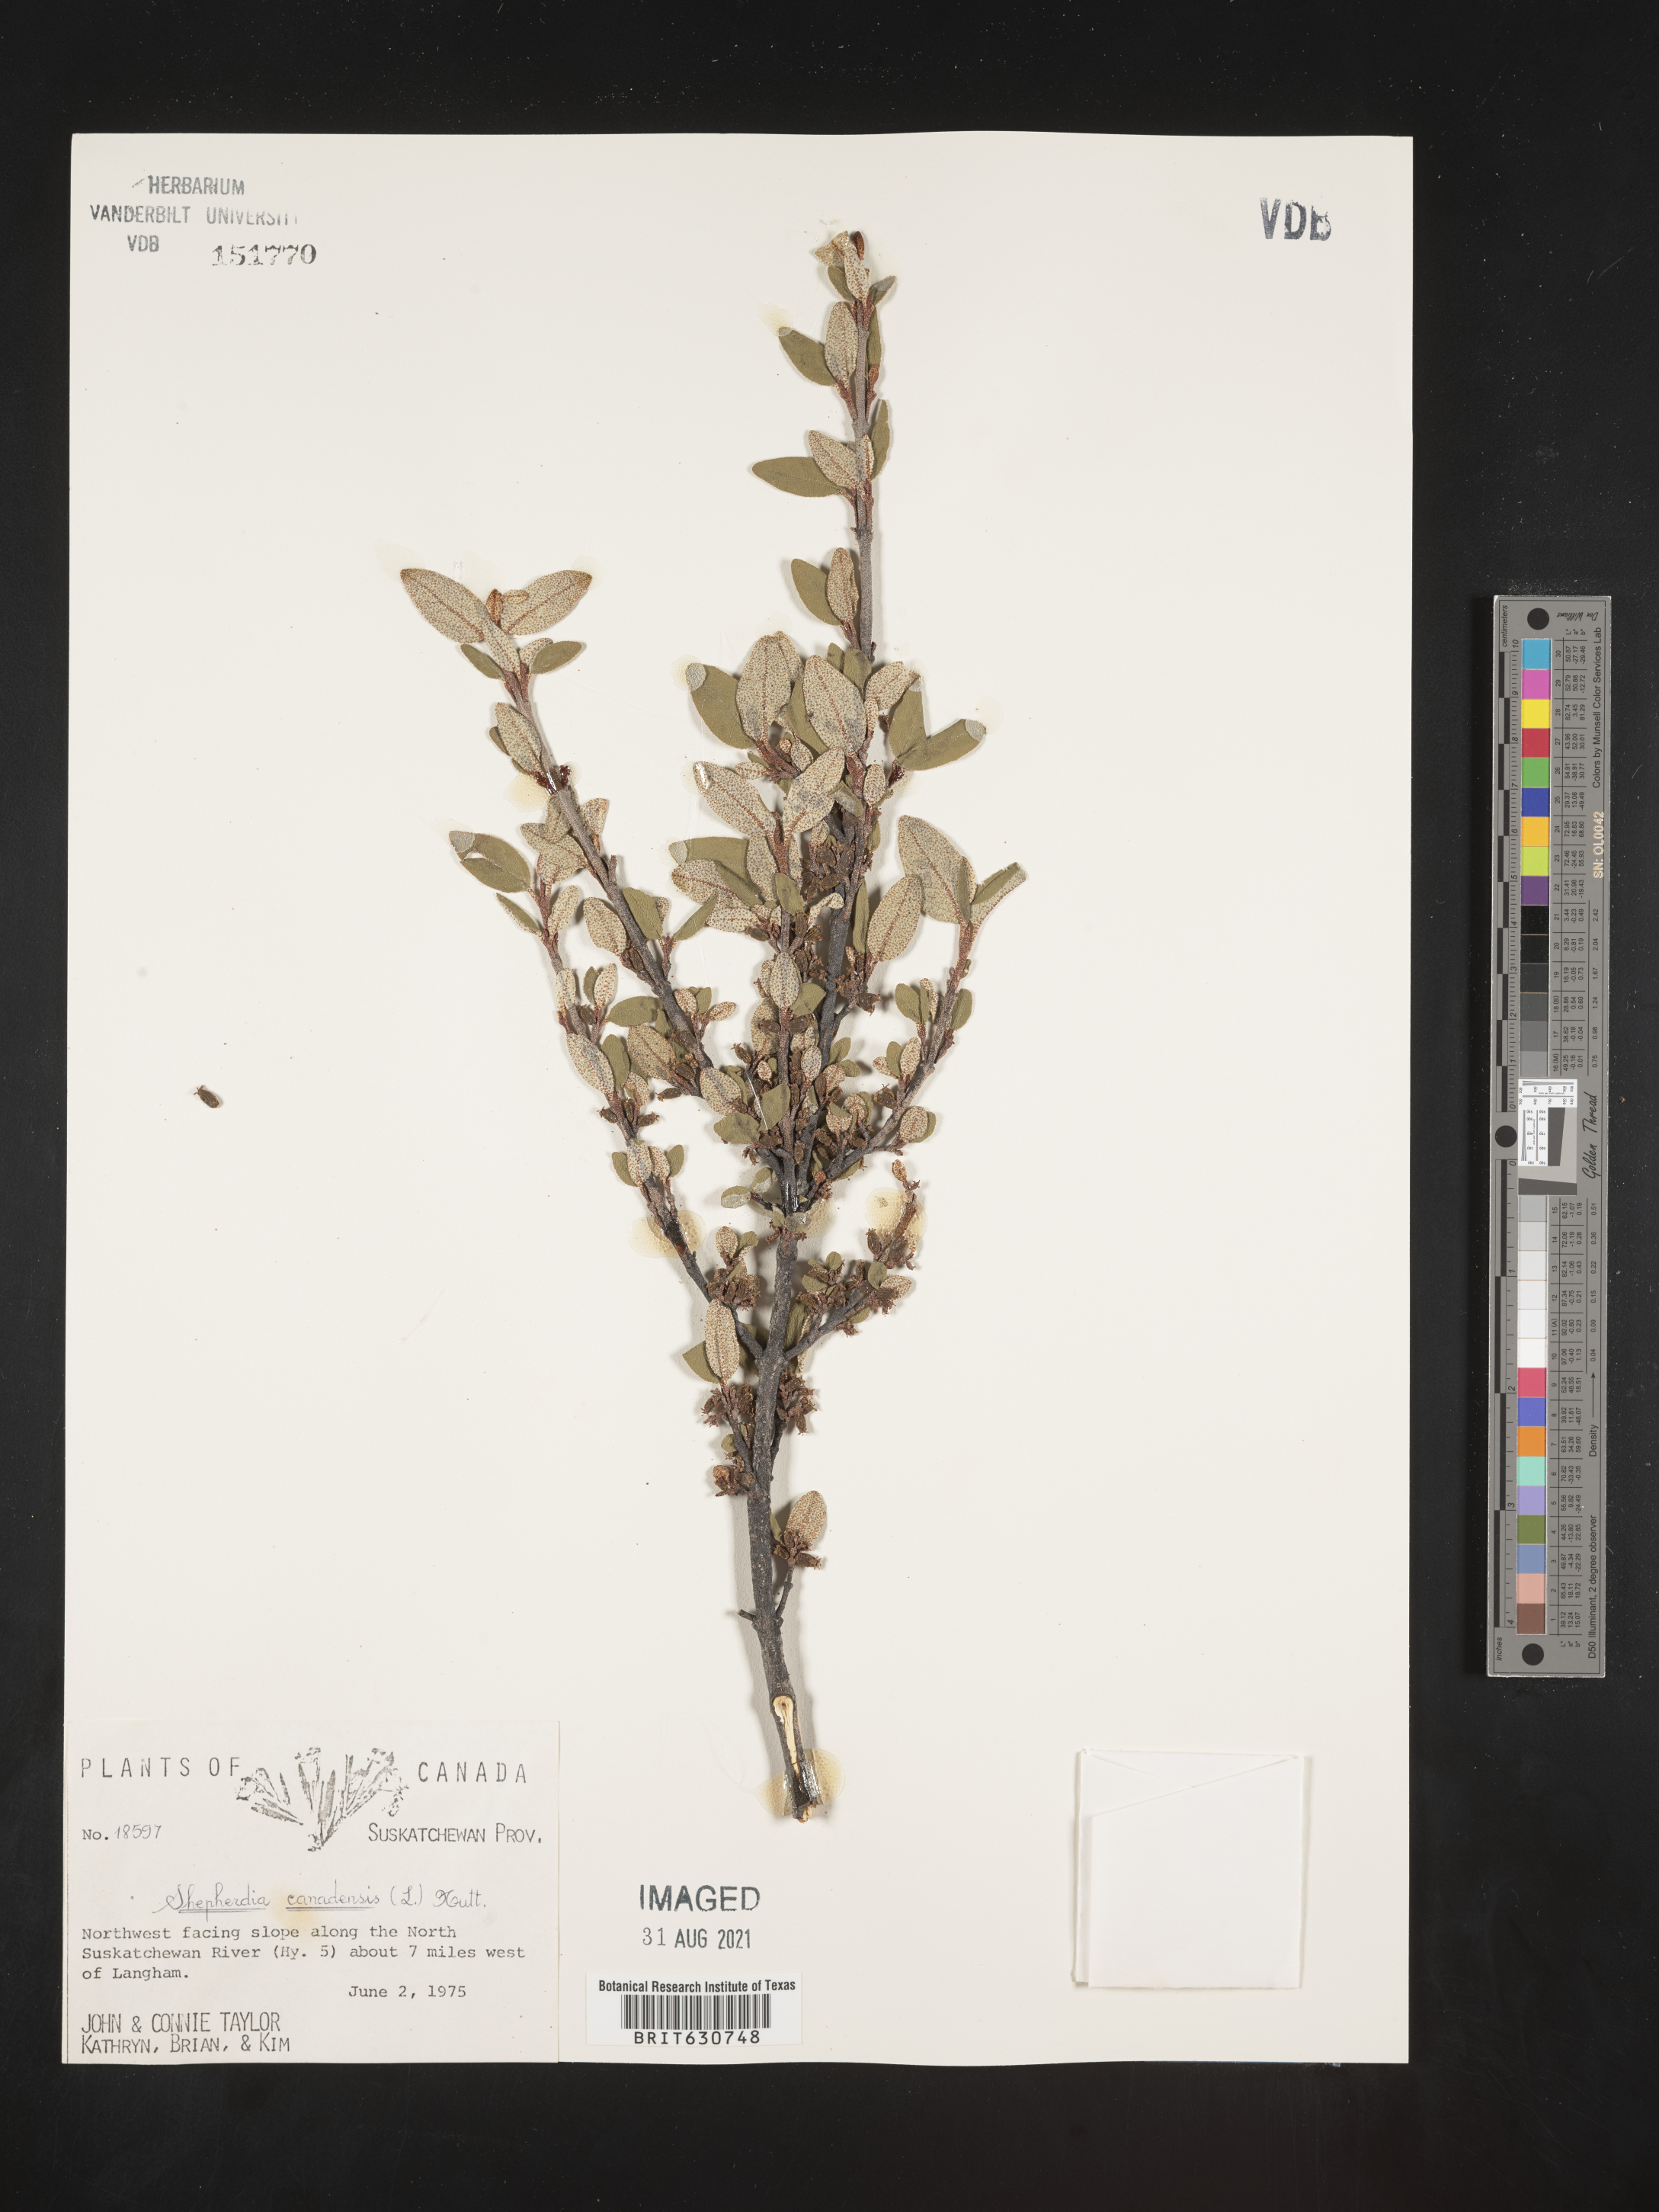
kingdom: Plantae
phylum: Tracheophyta
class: Magnoliopsida
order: Rosales
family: Elaeagnaceae
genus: Shepherdia
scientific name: Shepherdia
